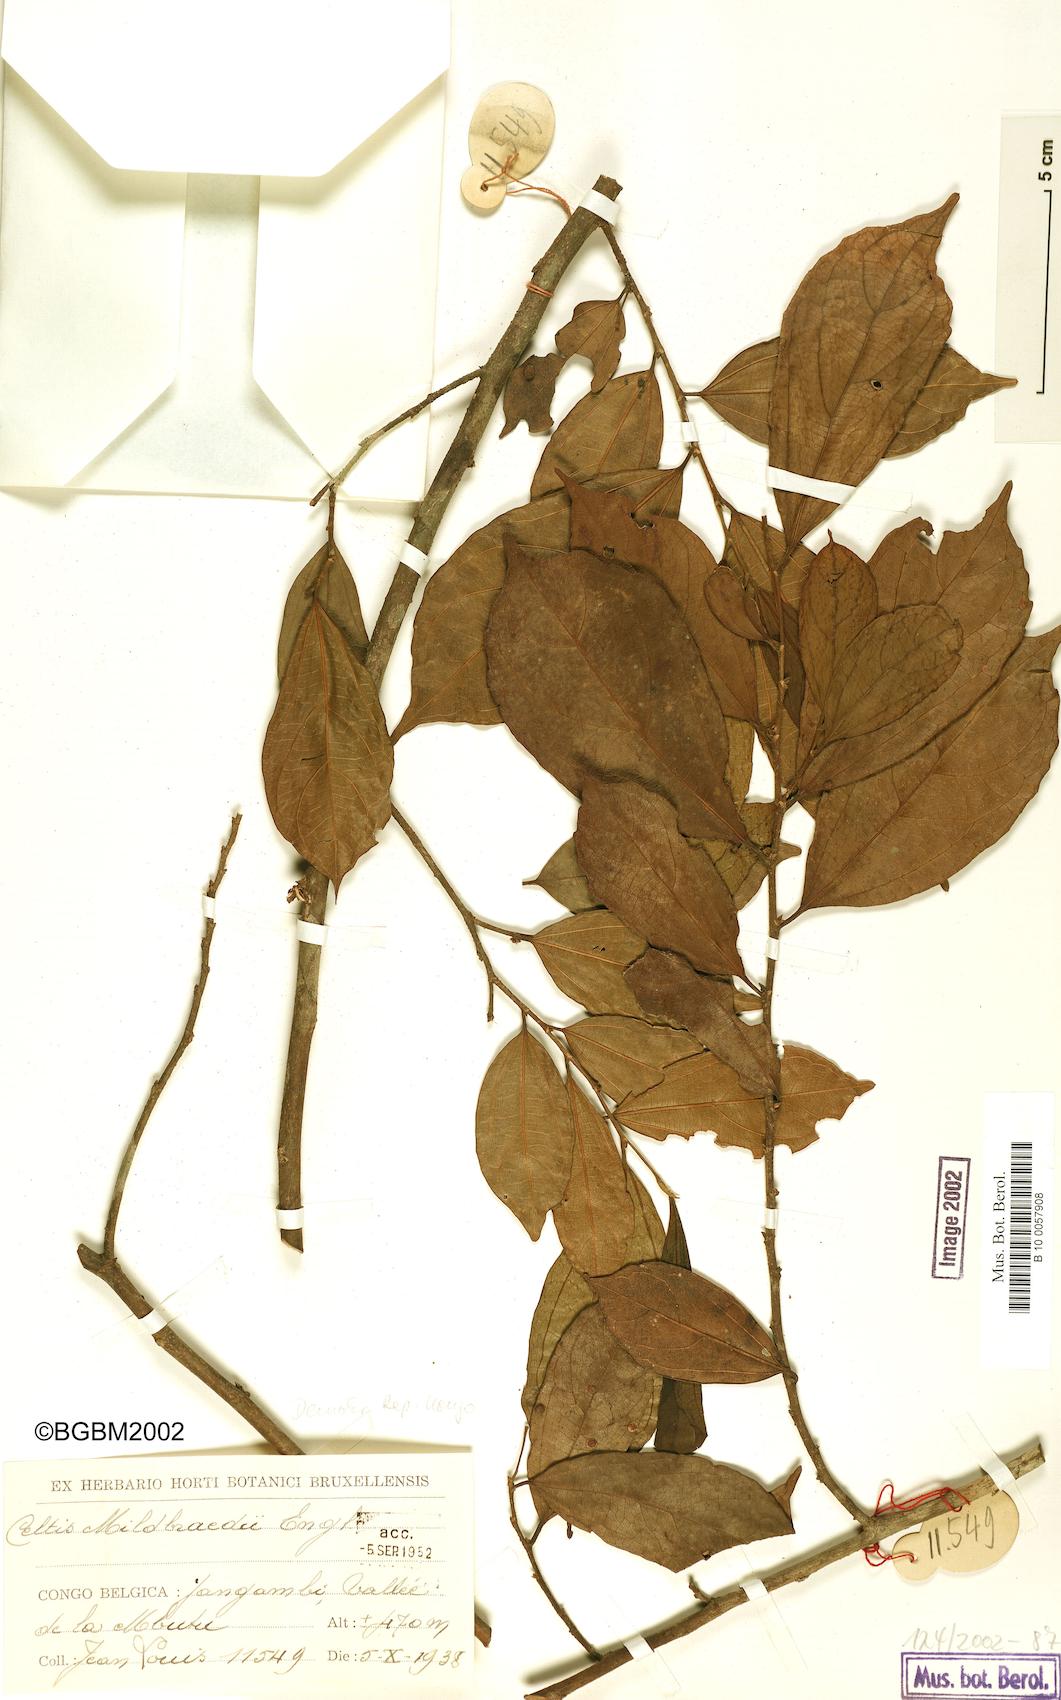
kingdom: Plantae
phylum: Tracheophyta
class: Magnoliopsida
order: Rosales
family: Cannabaceae
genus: Celtis
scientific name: Celtis mildbraedii
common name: Red-fruited stinkwood
